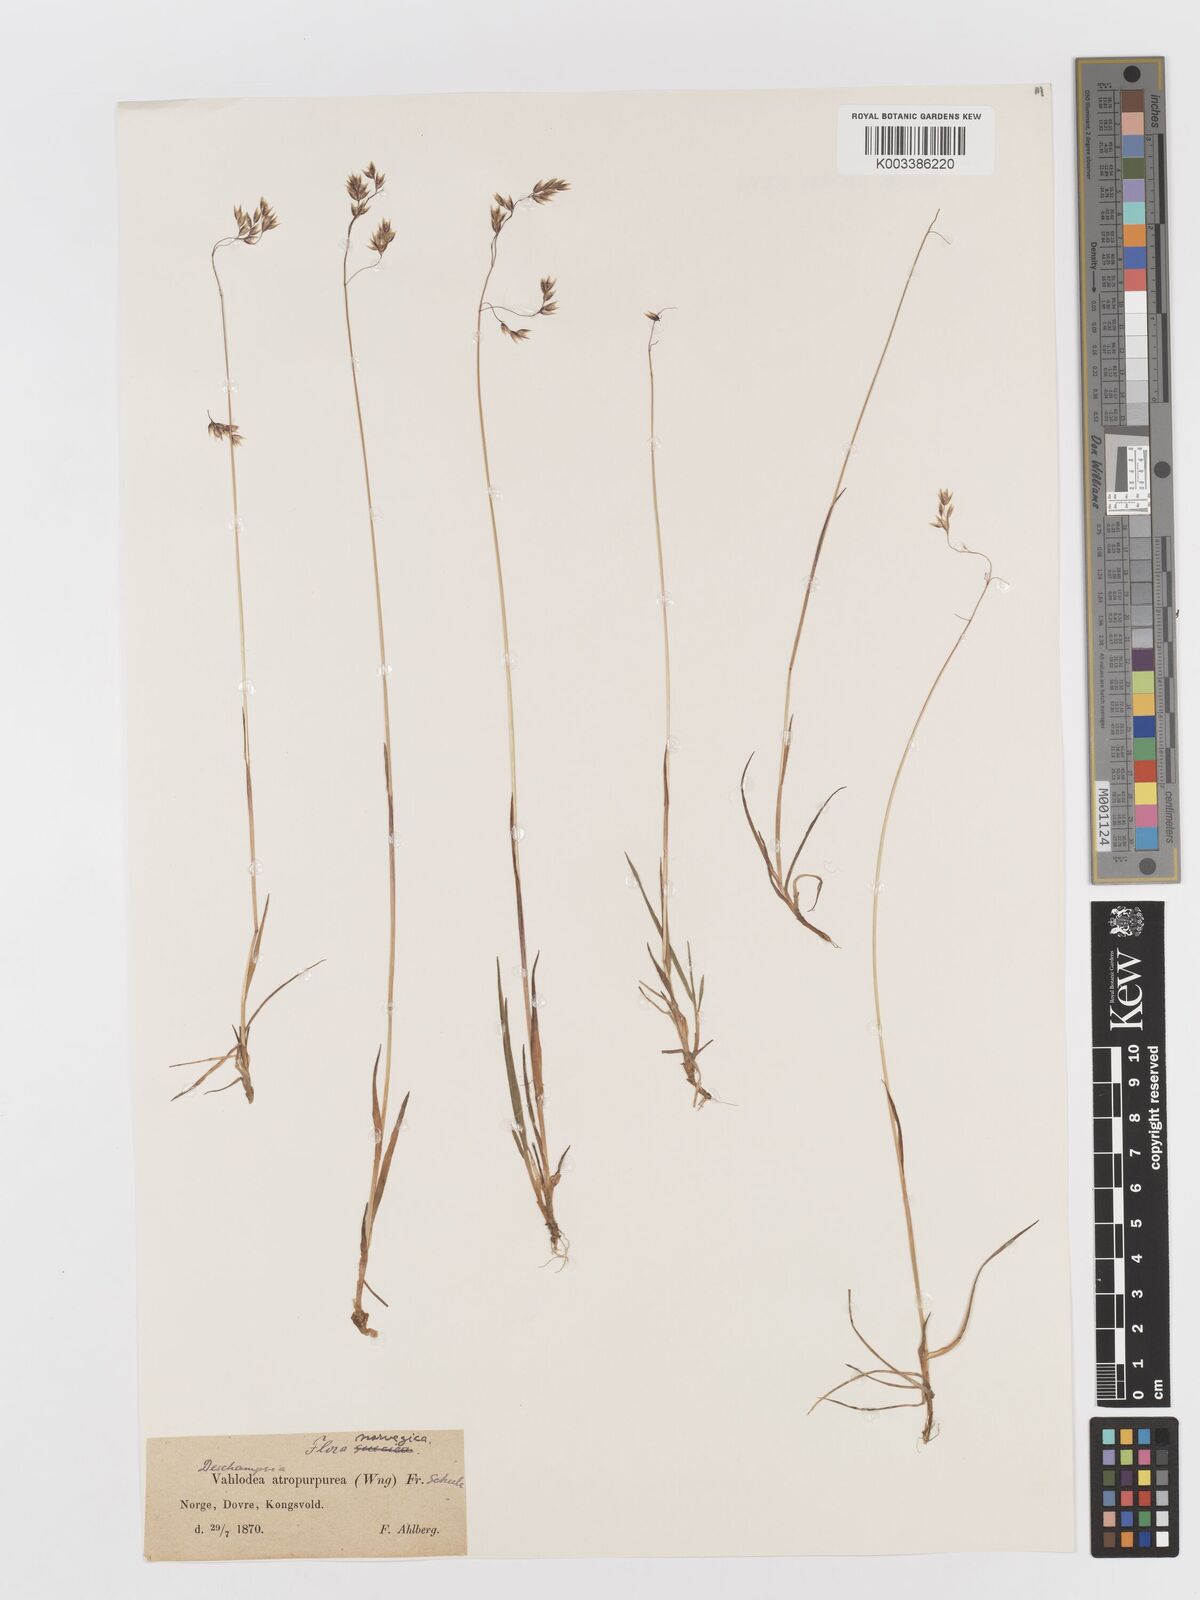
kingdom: Plantae
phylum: Tracheophyta
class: Liliopsida
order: Poales
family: Poaceae
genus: Deschampsia
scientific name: Deschampsia
